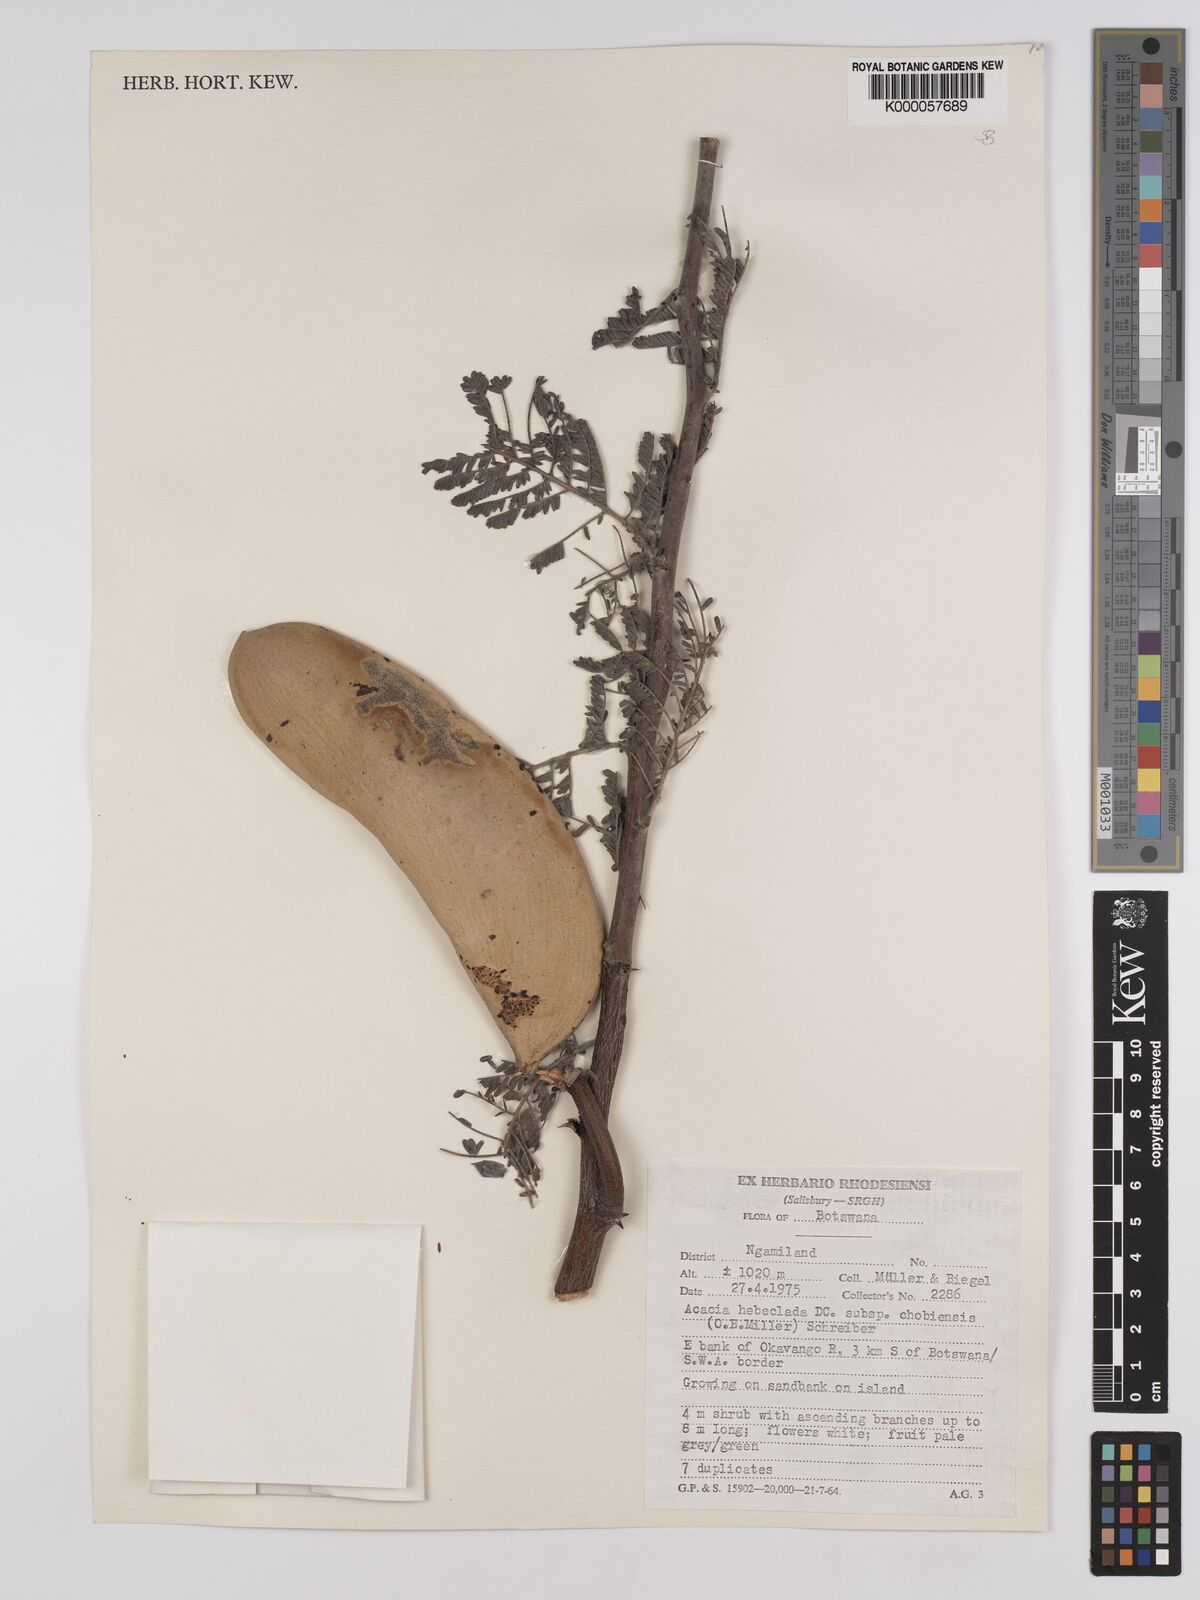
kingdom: Plantae
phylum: Tracheophyta
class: Magnoliopsida
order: Fabales
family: Fabaceae
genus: Vachellia
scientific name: Vachellia hebeclada
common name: Candle thorn
